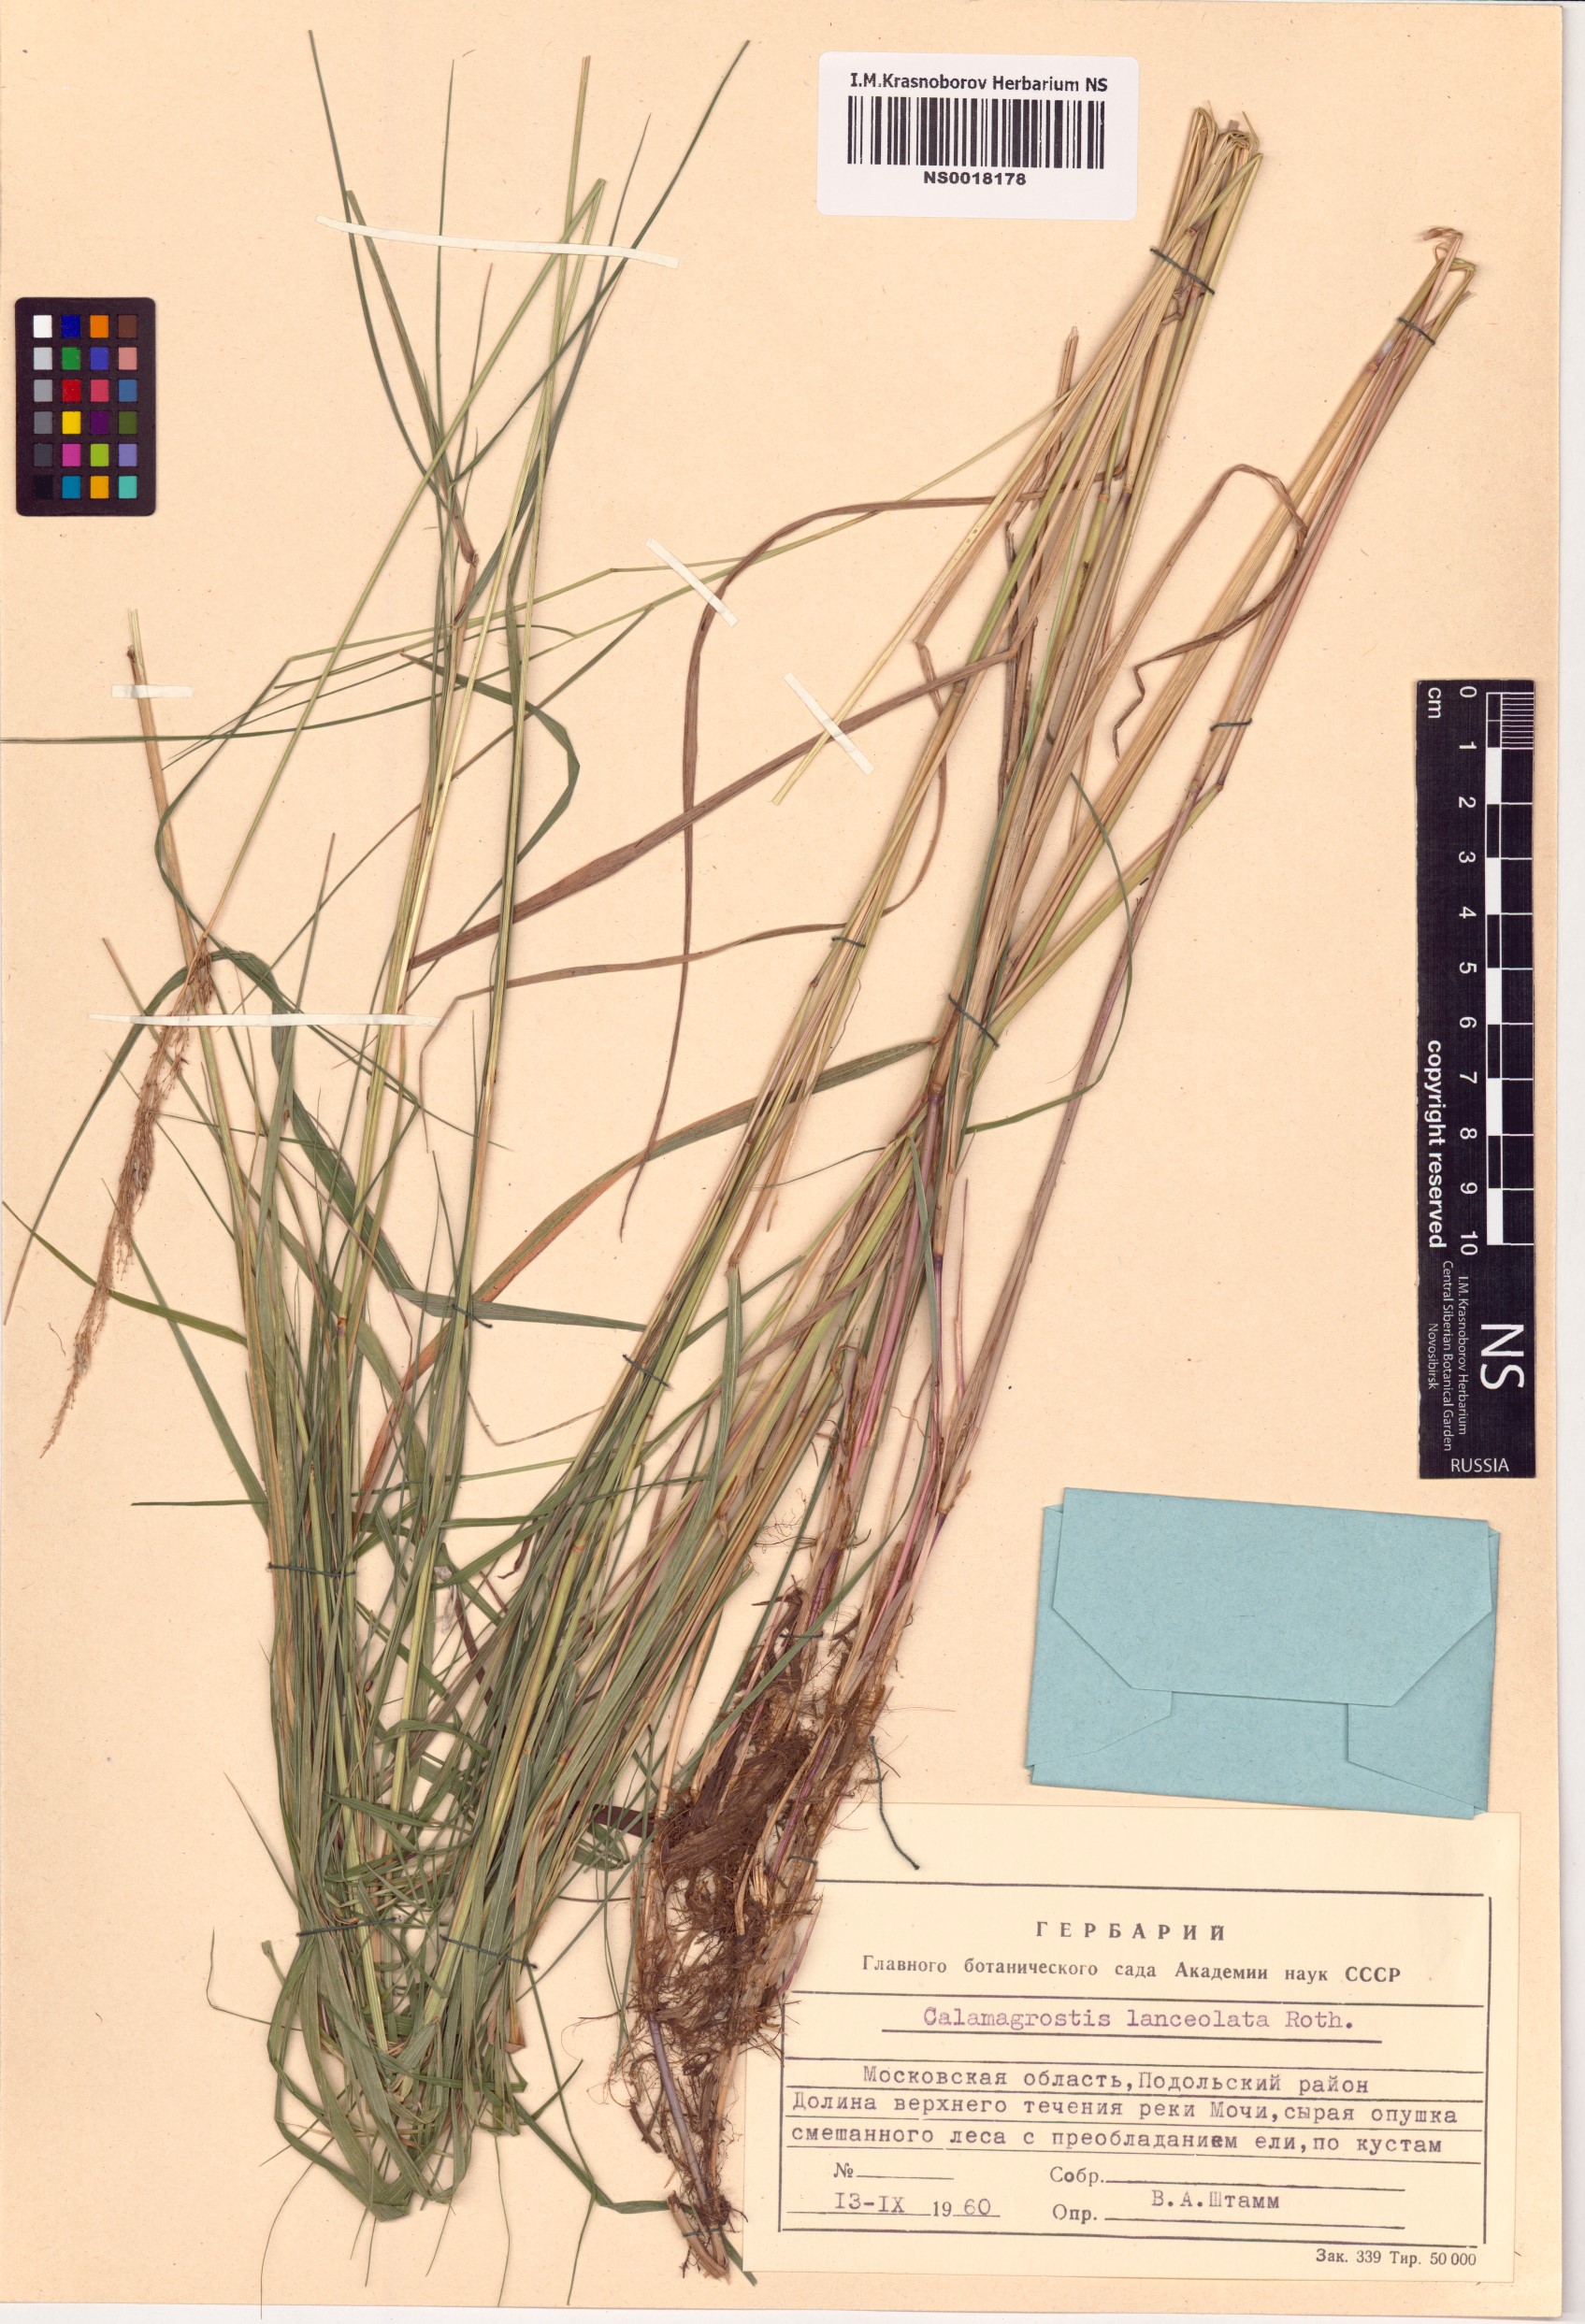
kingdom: Plantae
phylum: Tracheophyta
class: Liliopsida
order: Poales
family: Poaceae
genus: Calamagrostis
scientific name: Calamagrostis canescens
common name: Purple small-reed
